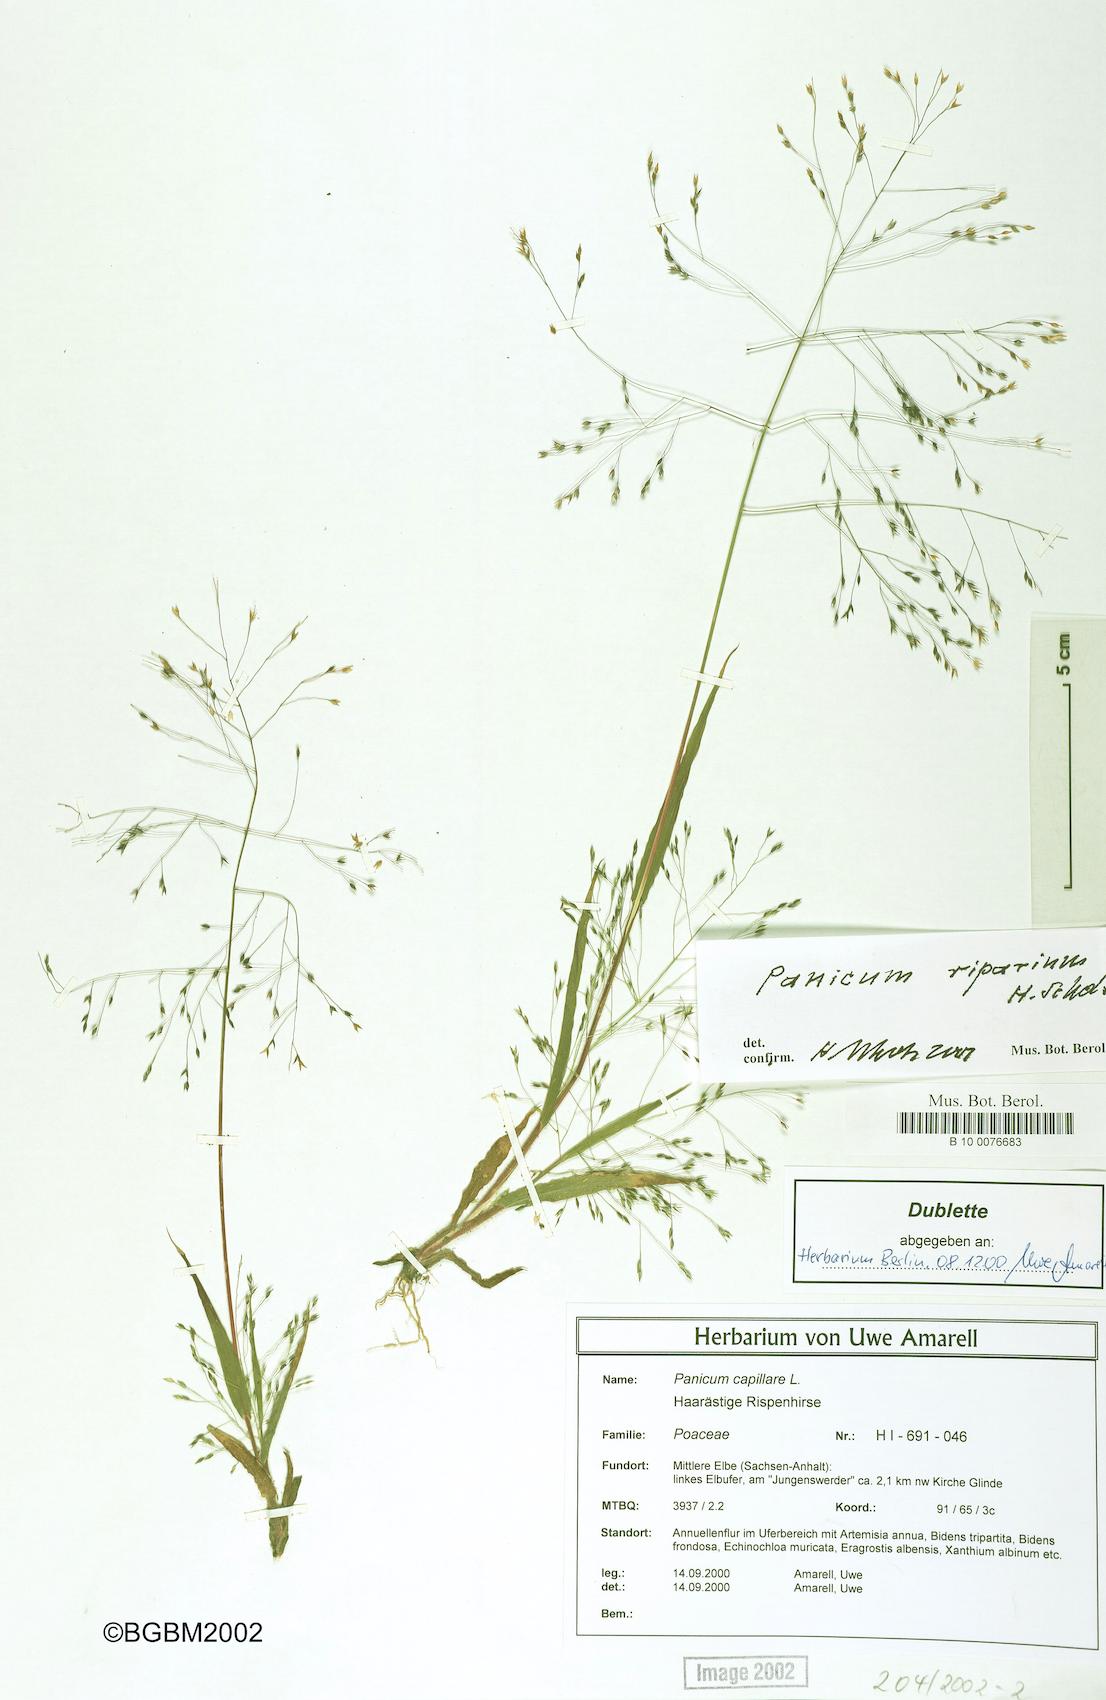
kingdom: Plantae
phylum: Tracheophyta
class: Liliopsida
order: Poales
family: Poaceae
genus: Panicum
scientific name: Panicum capillare
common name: Witch-grass
